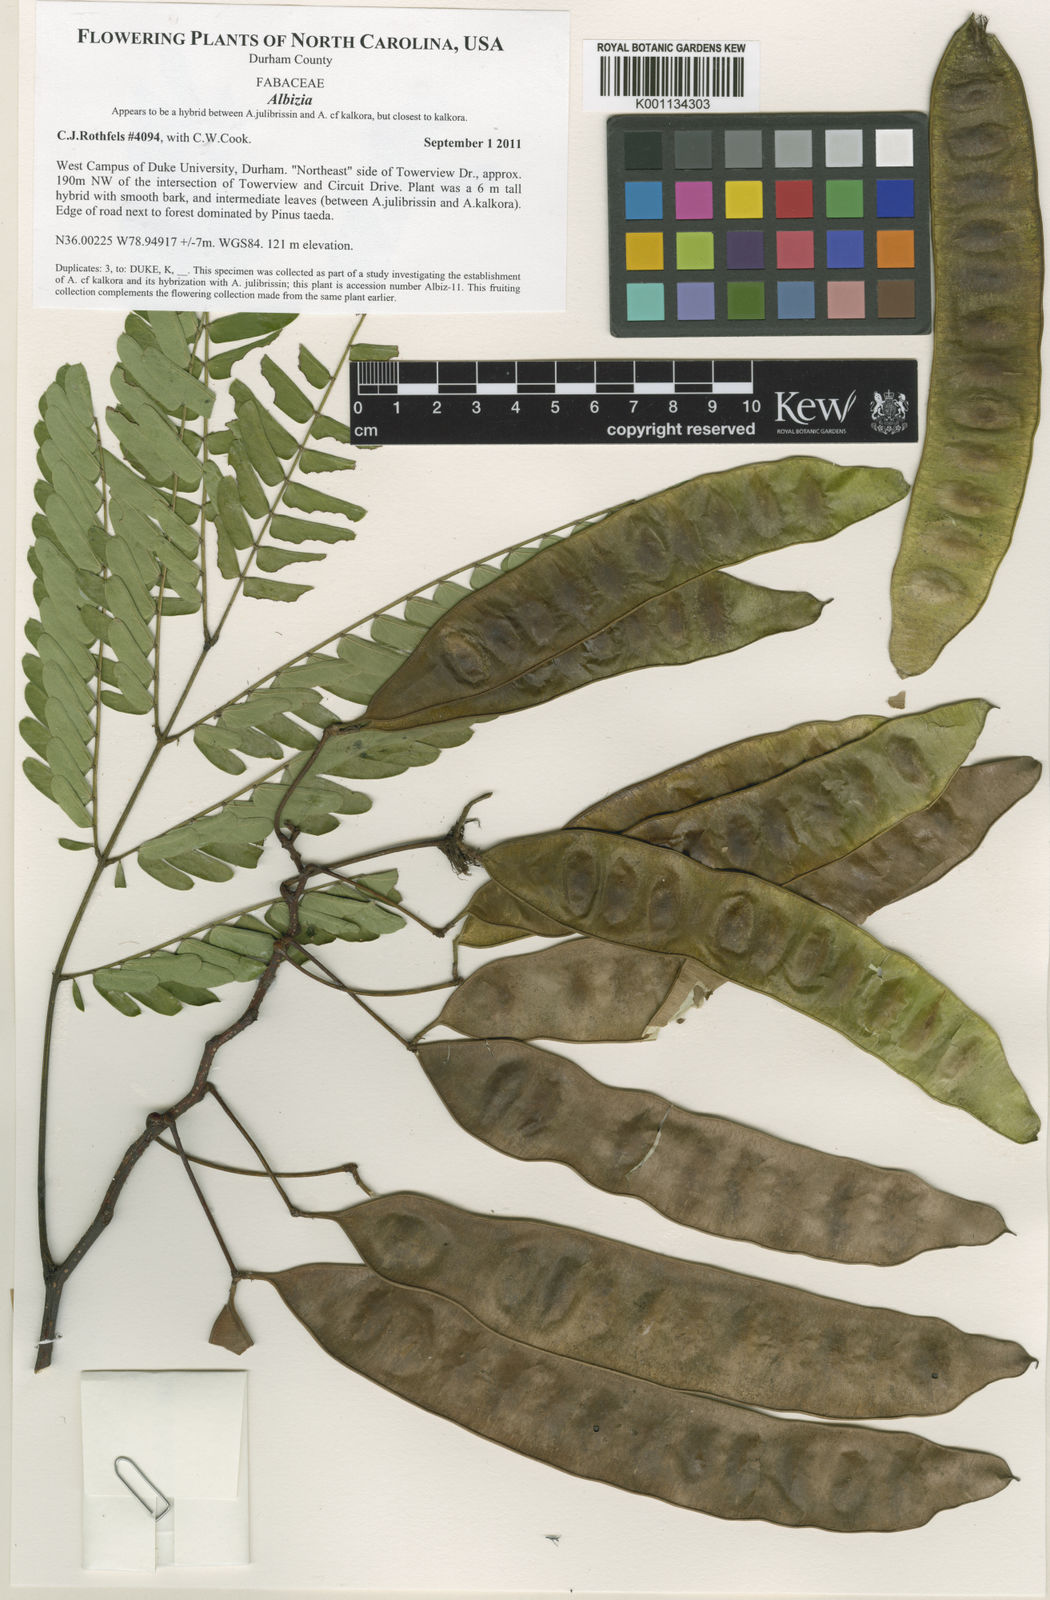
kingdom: Plantae
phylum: Tracheophyta
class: Magnoliopsida
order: Fabales
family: Fabaceae
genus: Albizia
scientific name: Albizia
